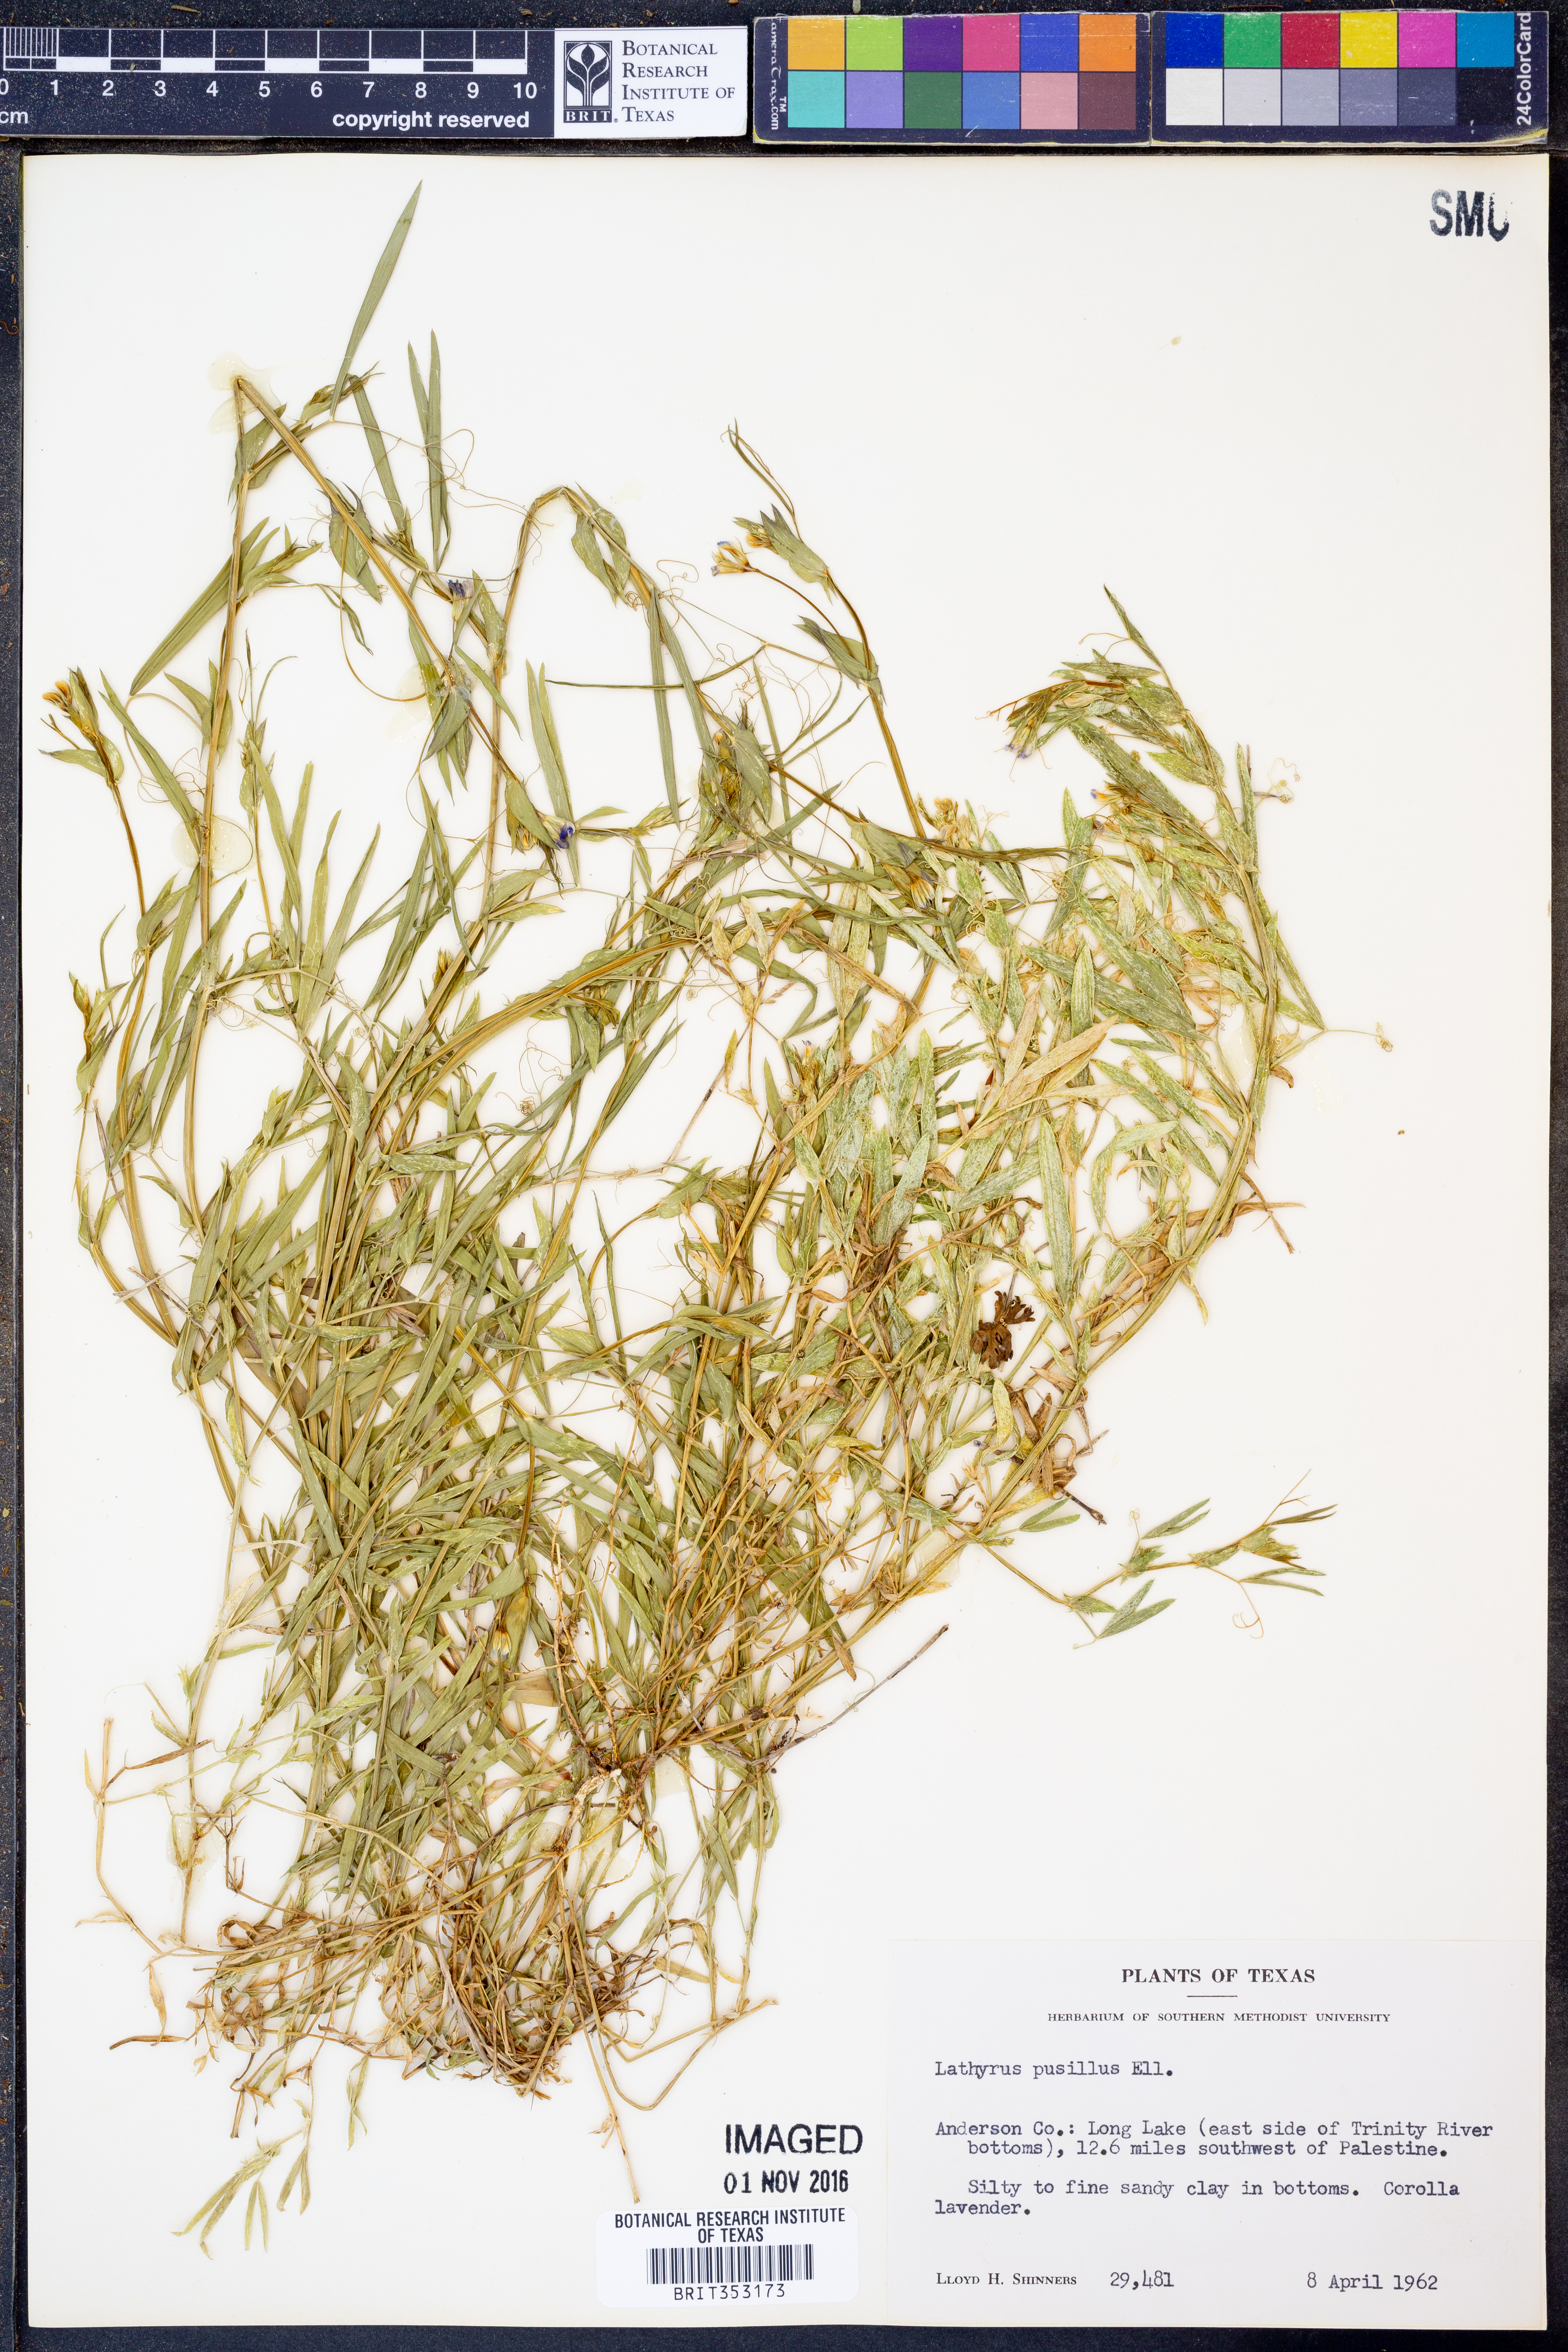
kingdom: Plantae
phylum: Tracheophyta
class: Magnoliopsida
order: Fabales
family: Fabaceae
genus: Lathyrus
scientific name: Lathyrus pusillus
